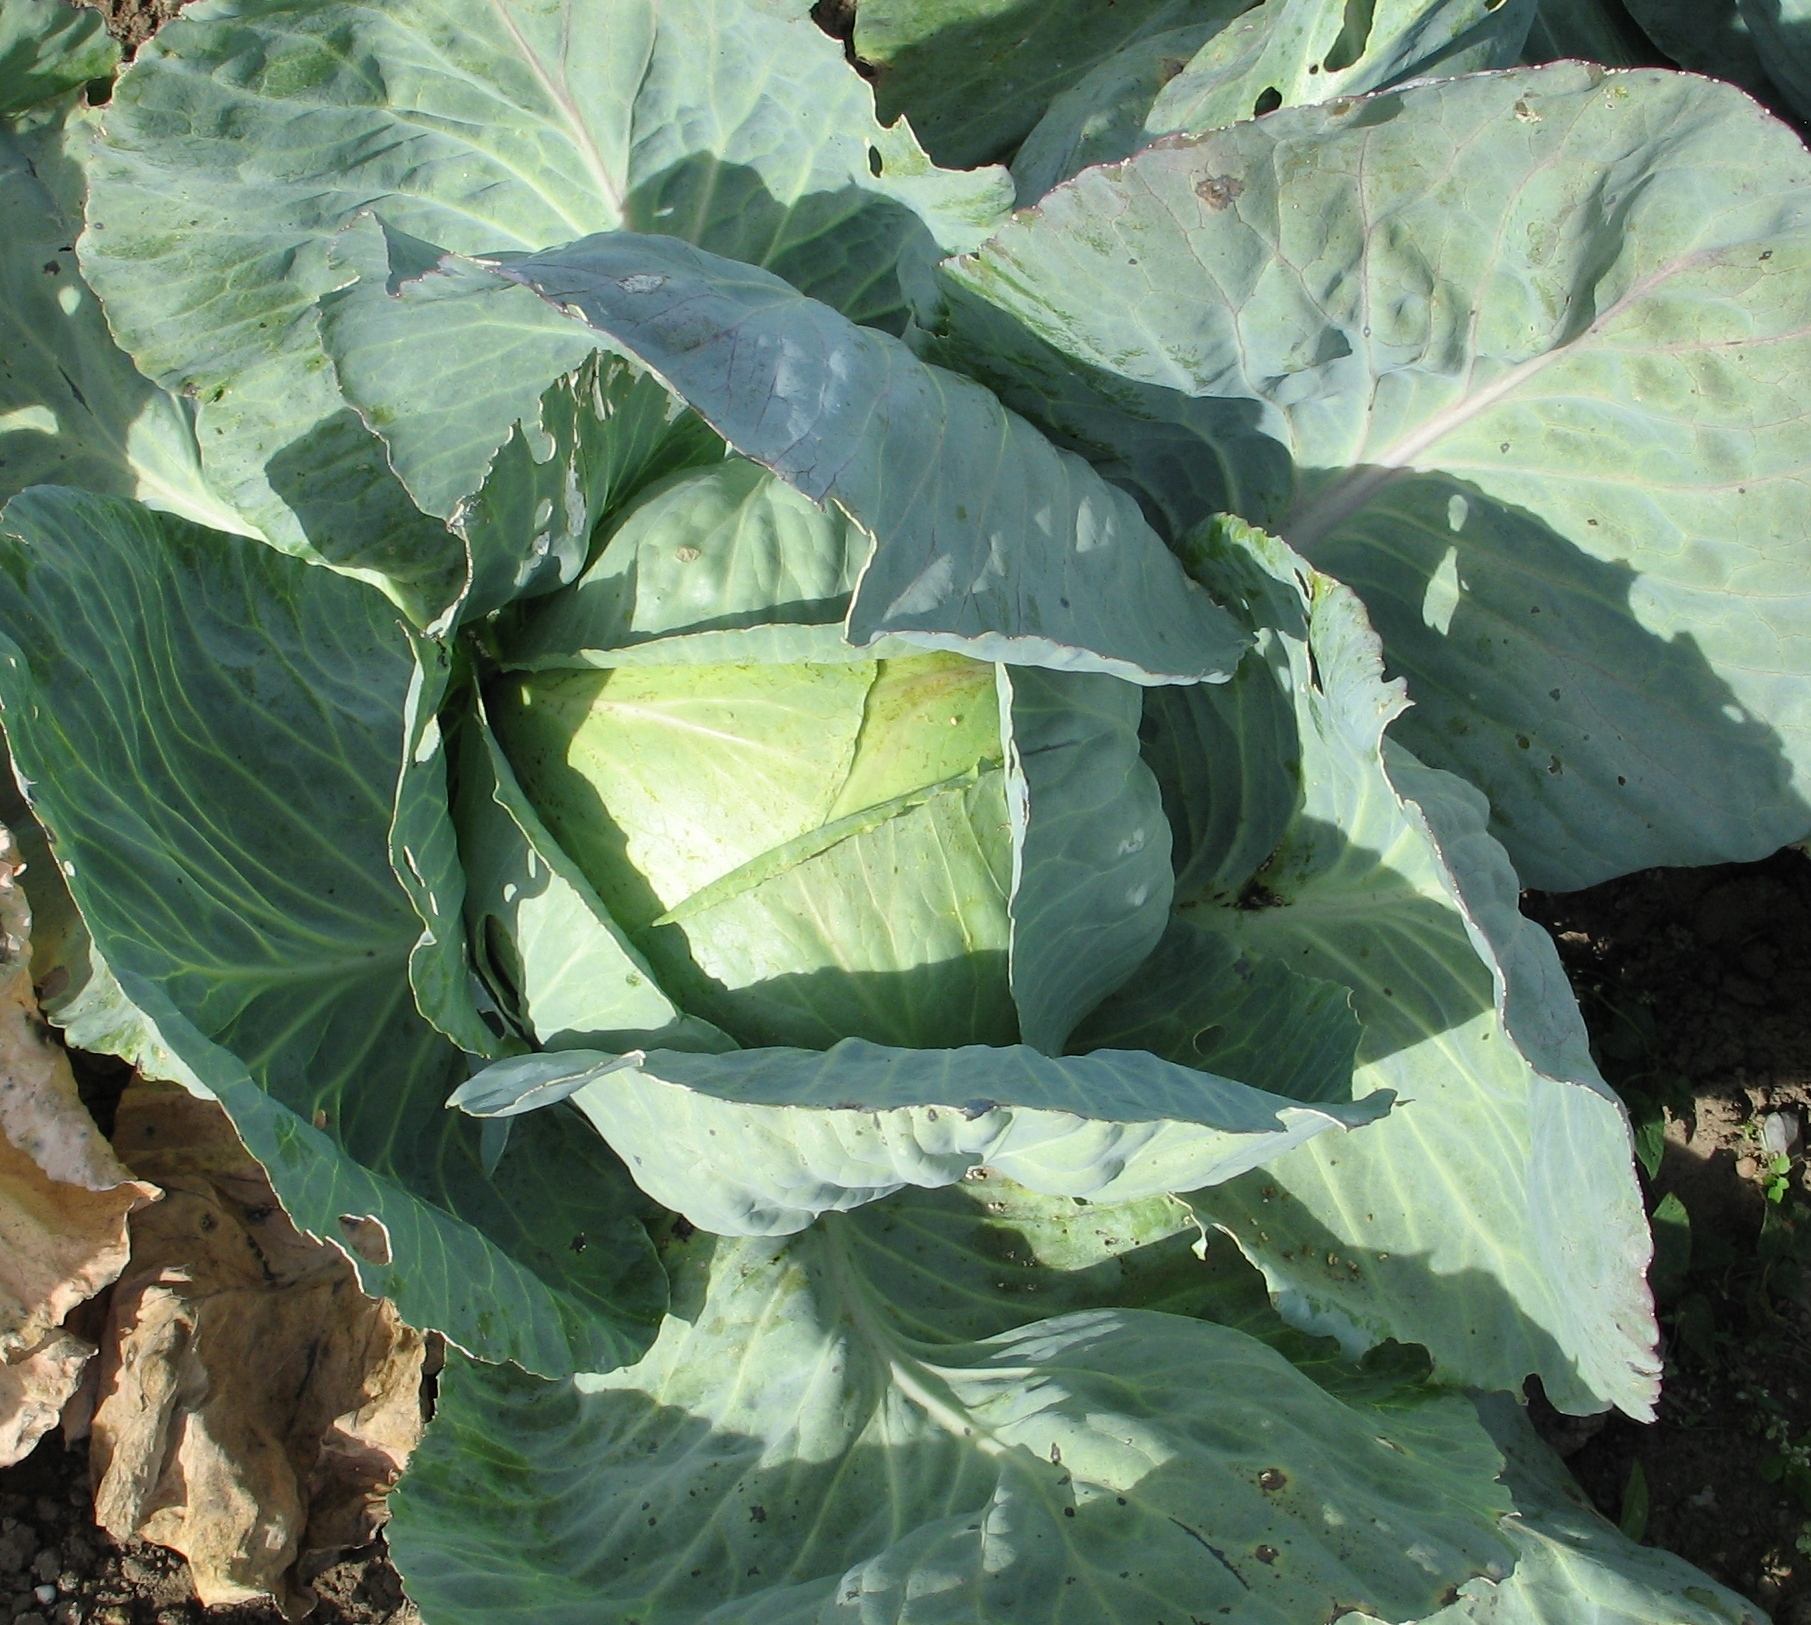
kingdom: Plantae
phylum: Tracheophyta
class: Magnoliopsida
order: Brassicales
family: Brassicaceae
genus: Brassica
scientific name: Brassica oleracea
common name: Cabbage
